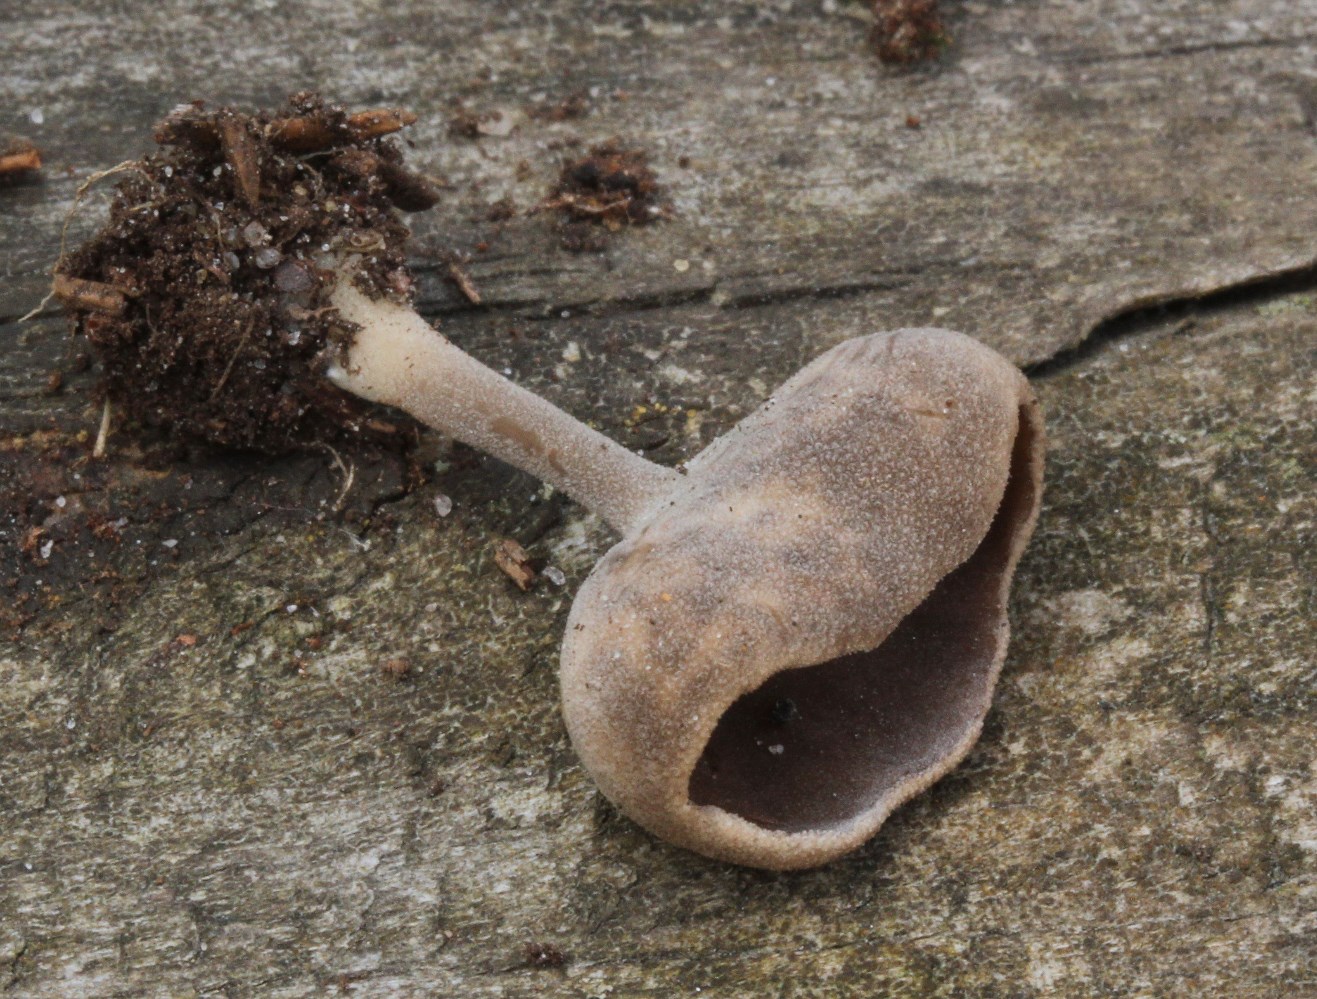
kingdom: Fungi
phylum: Ascomycota
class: Pezizomycetes
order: Pezizales
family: Helvellaceae
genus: Helvella
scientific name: Helvella
